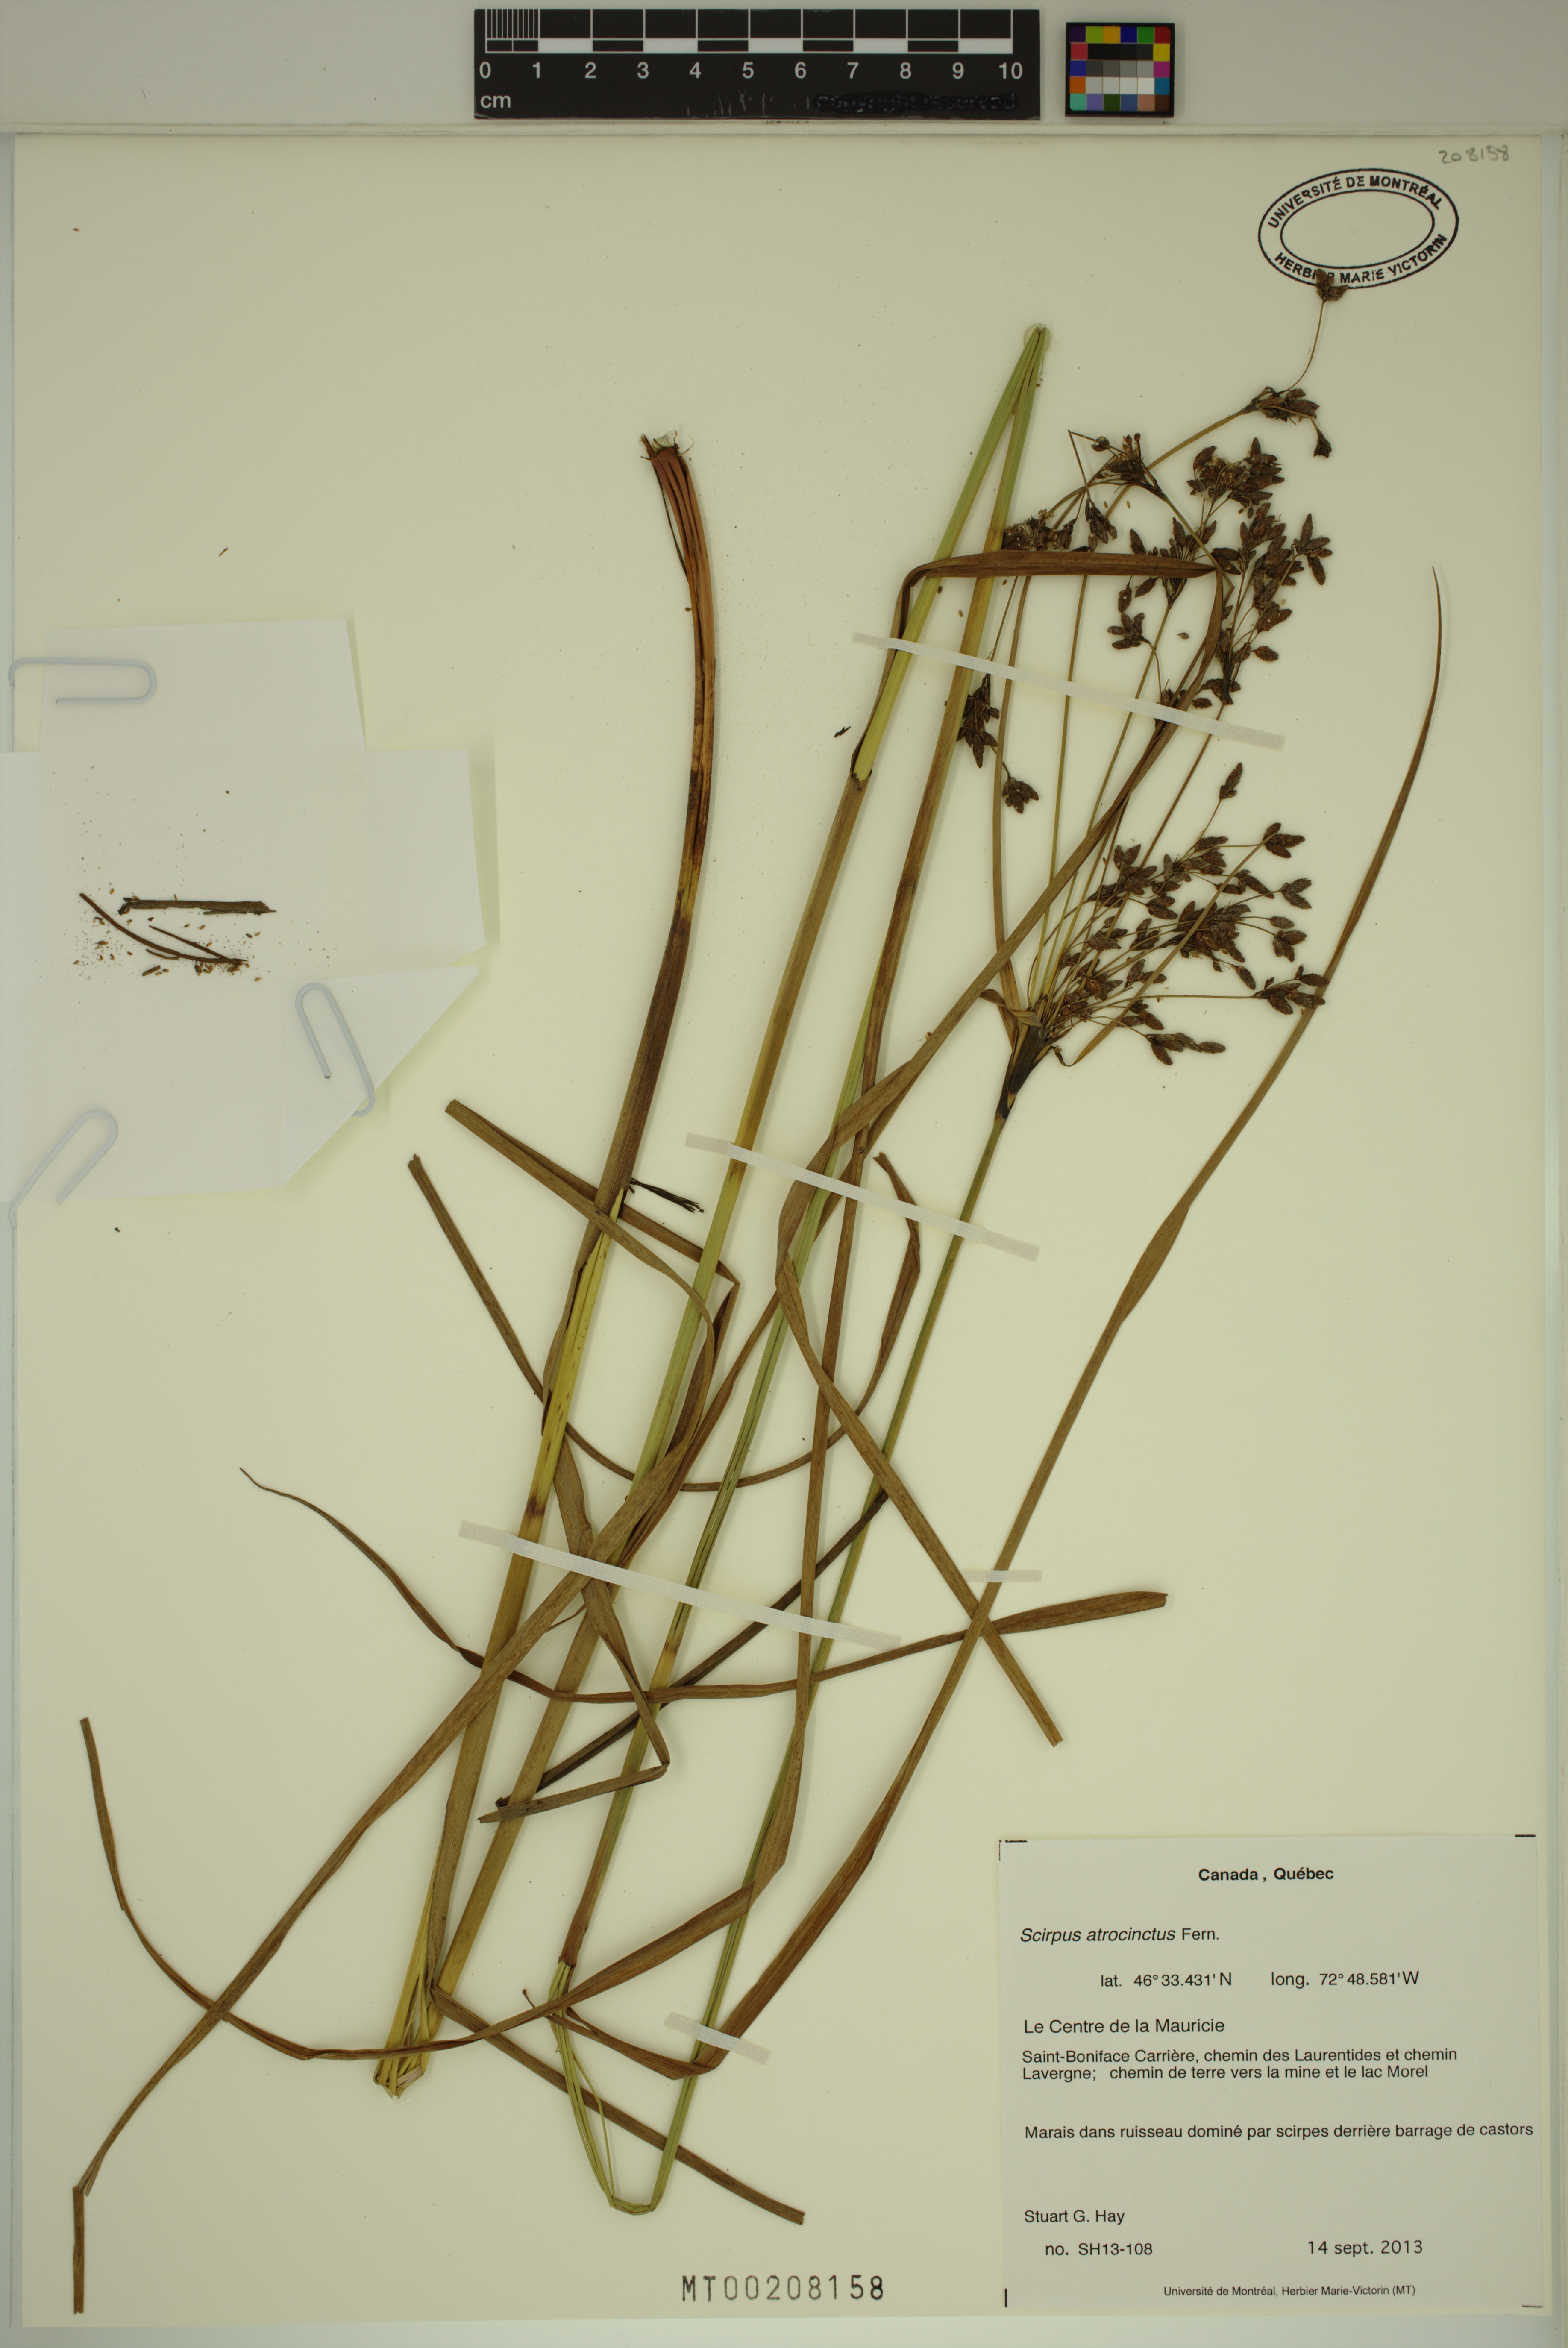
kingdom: Plantae
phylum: Tracheophyta
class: Liliopsida
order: Poales
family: Cyperaceae
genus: Scirpus
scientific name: Scirpus atrocinctus
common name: Black-girdled bulrush
